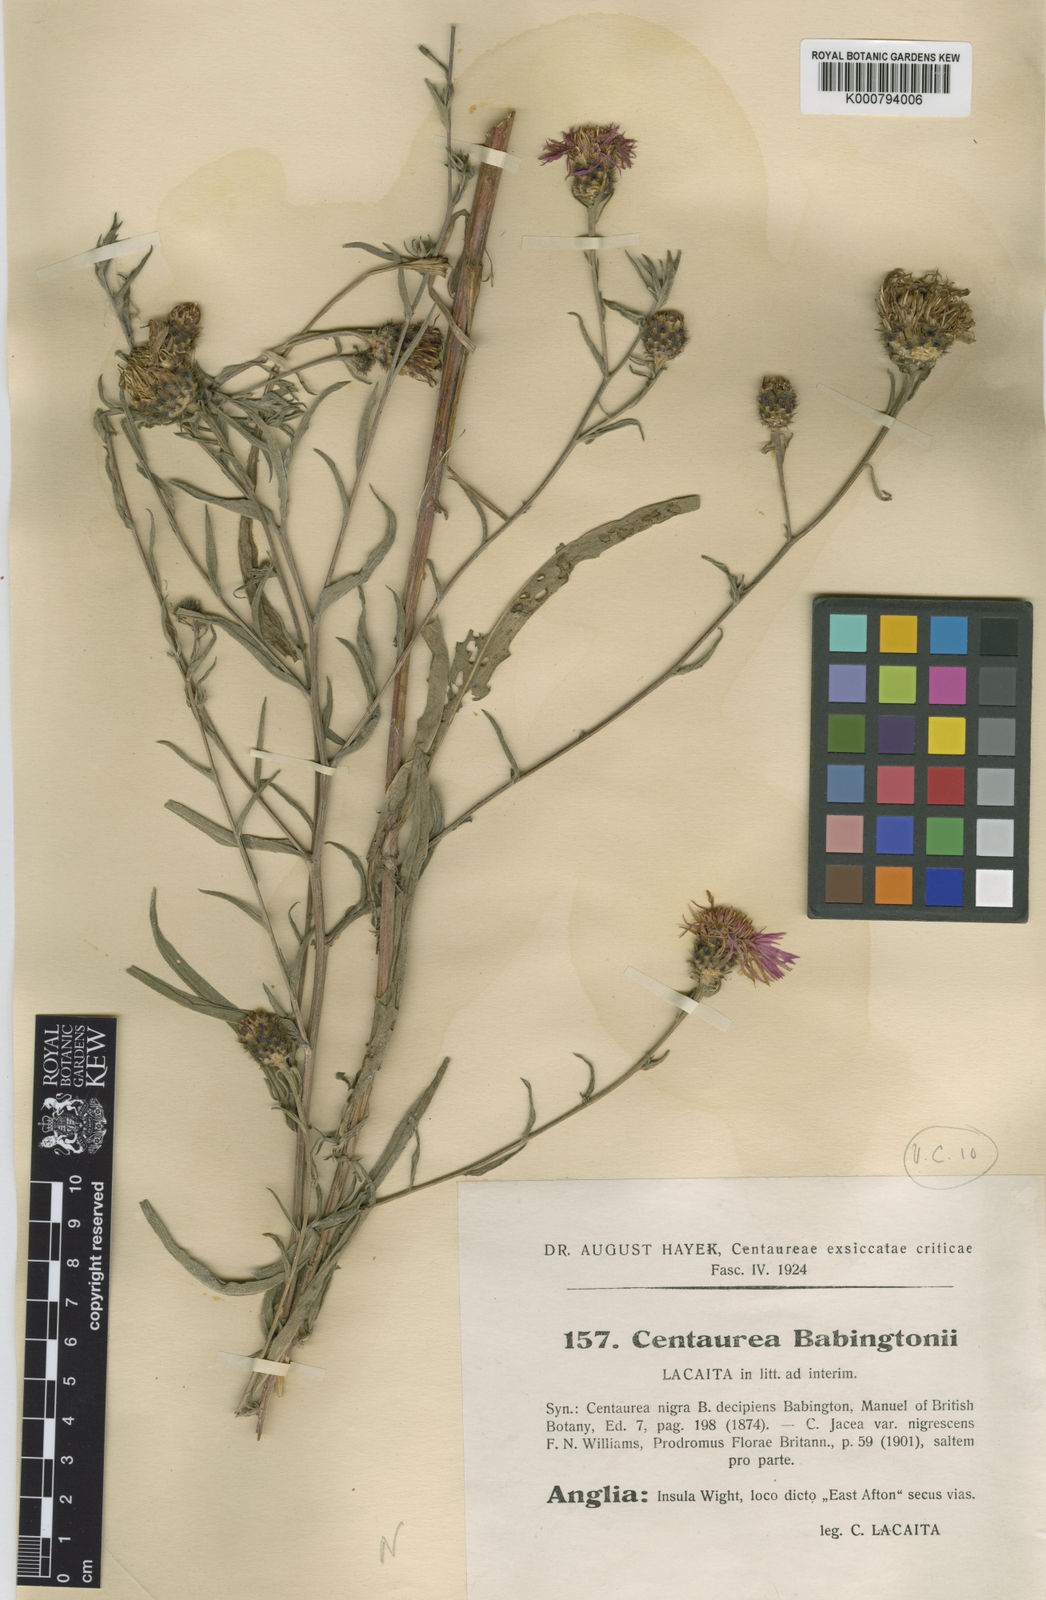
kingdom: Plantae
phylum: Tracheophyta
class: Magnoliopsida
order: Asterales
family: Asteraceae
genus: Centaurea
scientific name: Centaurea debeauxii
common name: Slender knapweed
